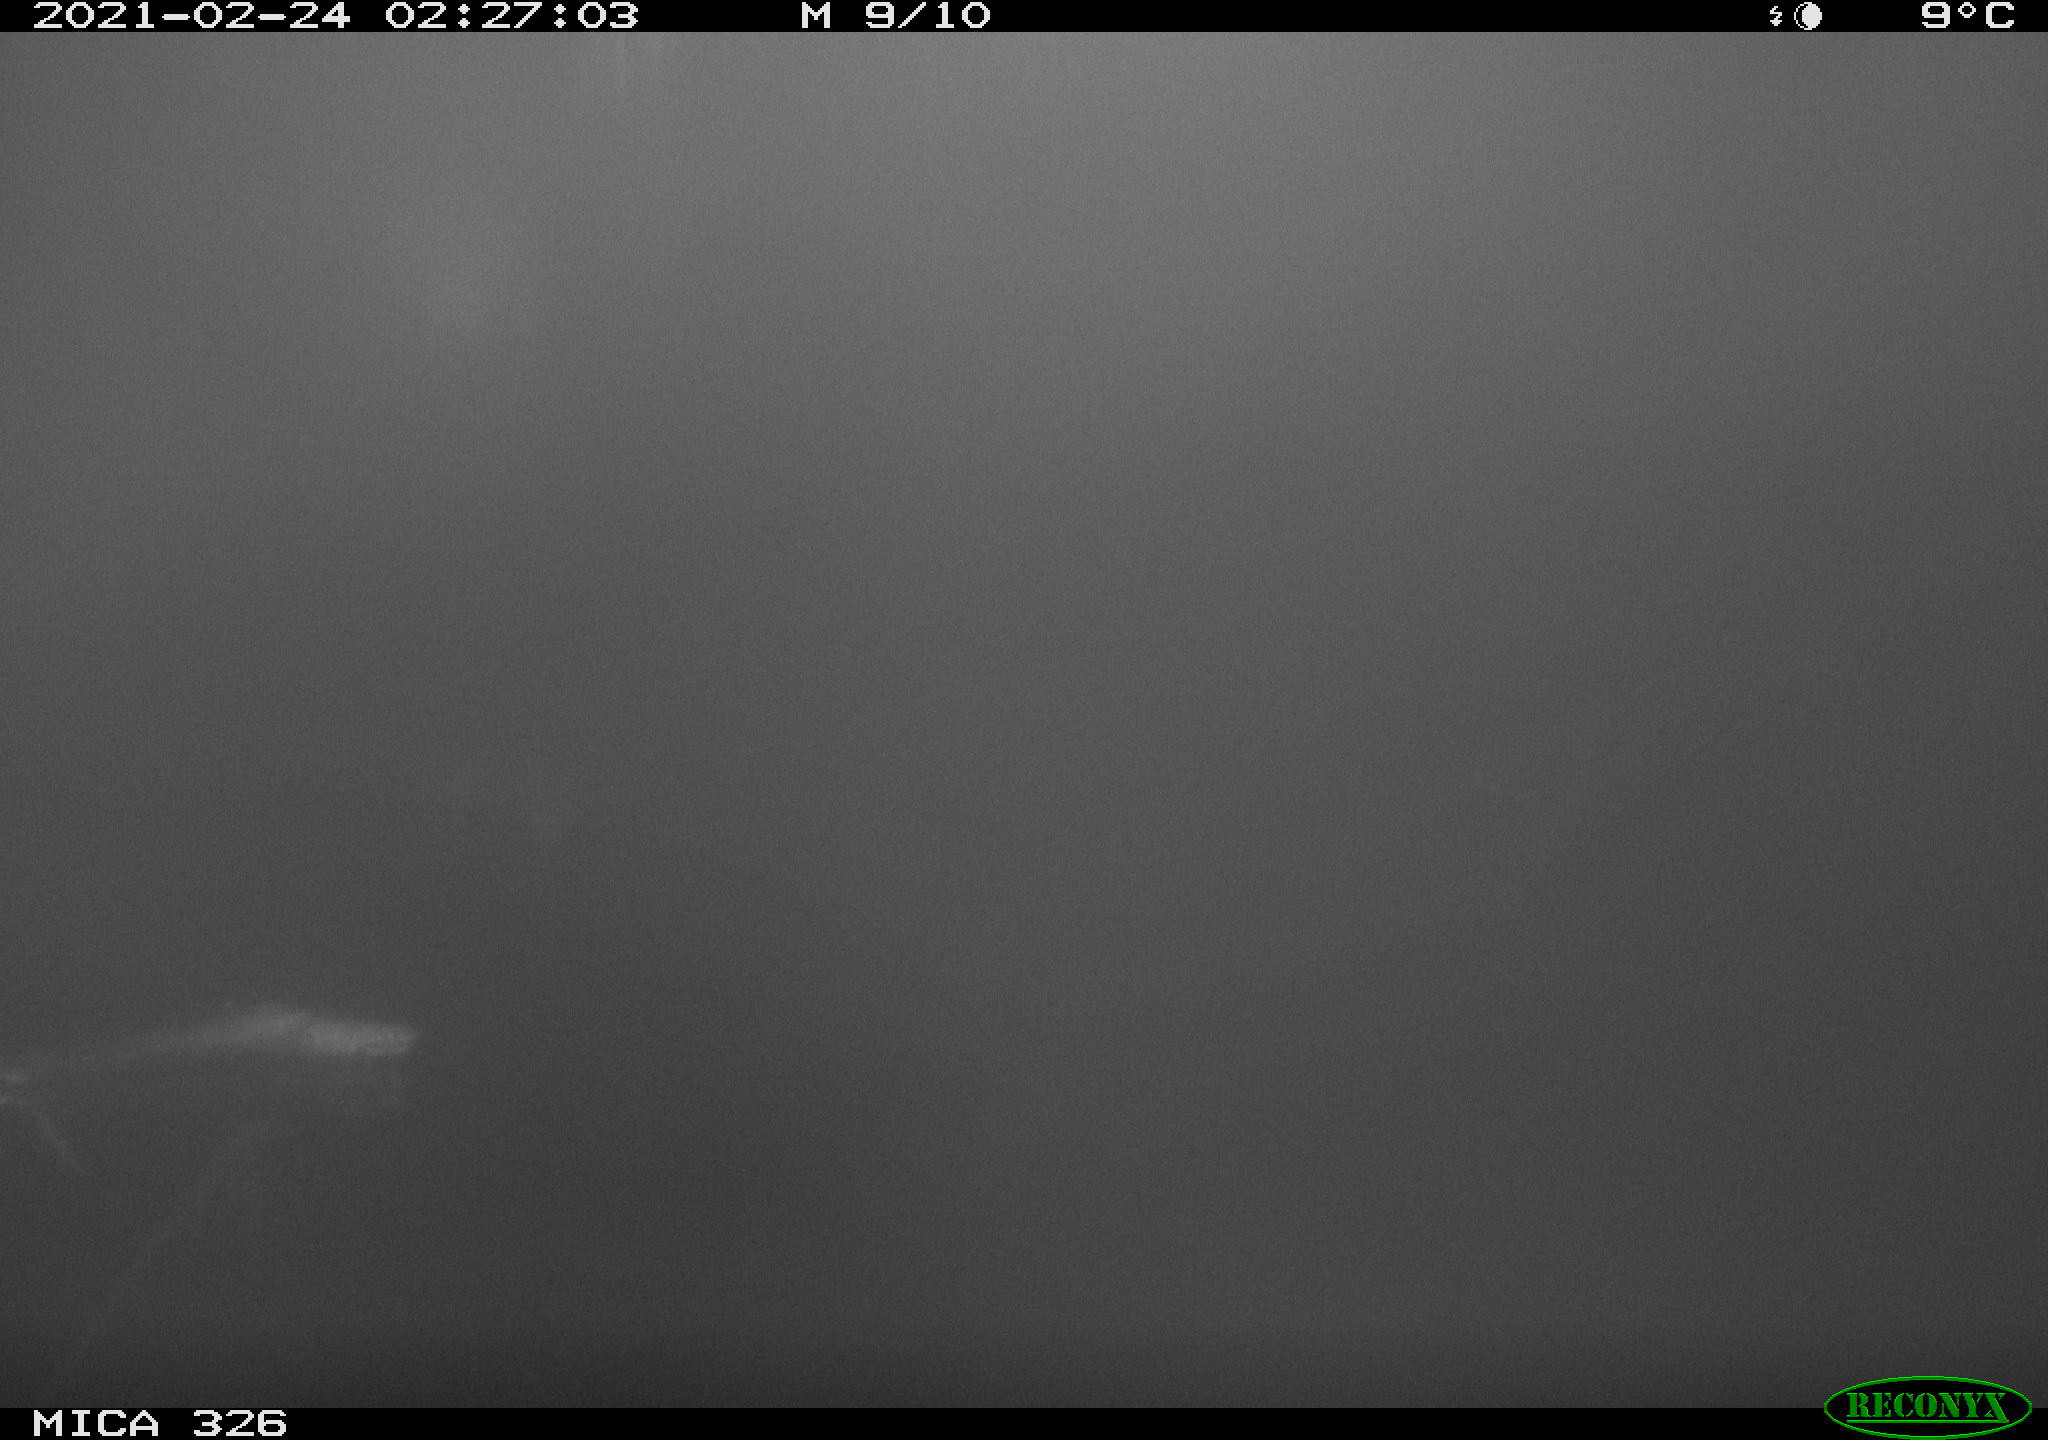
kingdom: Animalia
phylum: Chordata
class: Mammalia
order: Rodentia
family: Cricetidae
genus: Ondatra
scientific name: Ondatra zibethicus
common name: Muskrat
